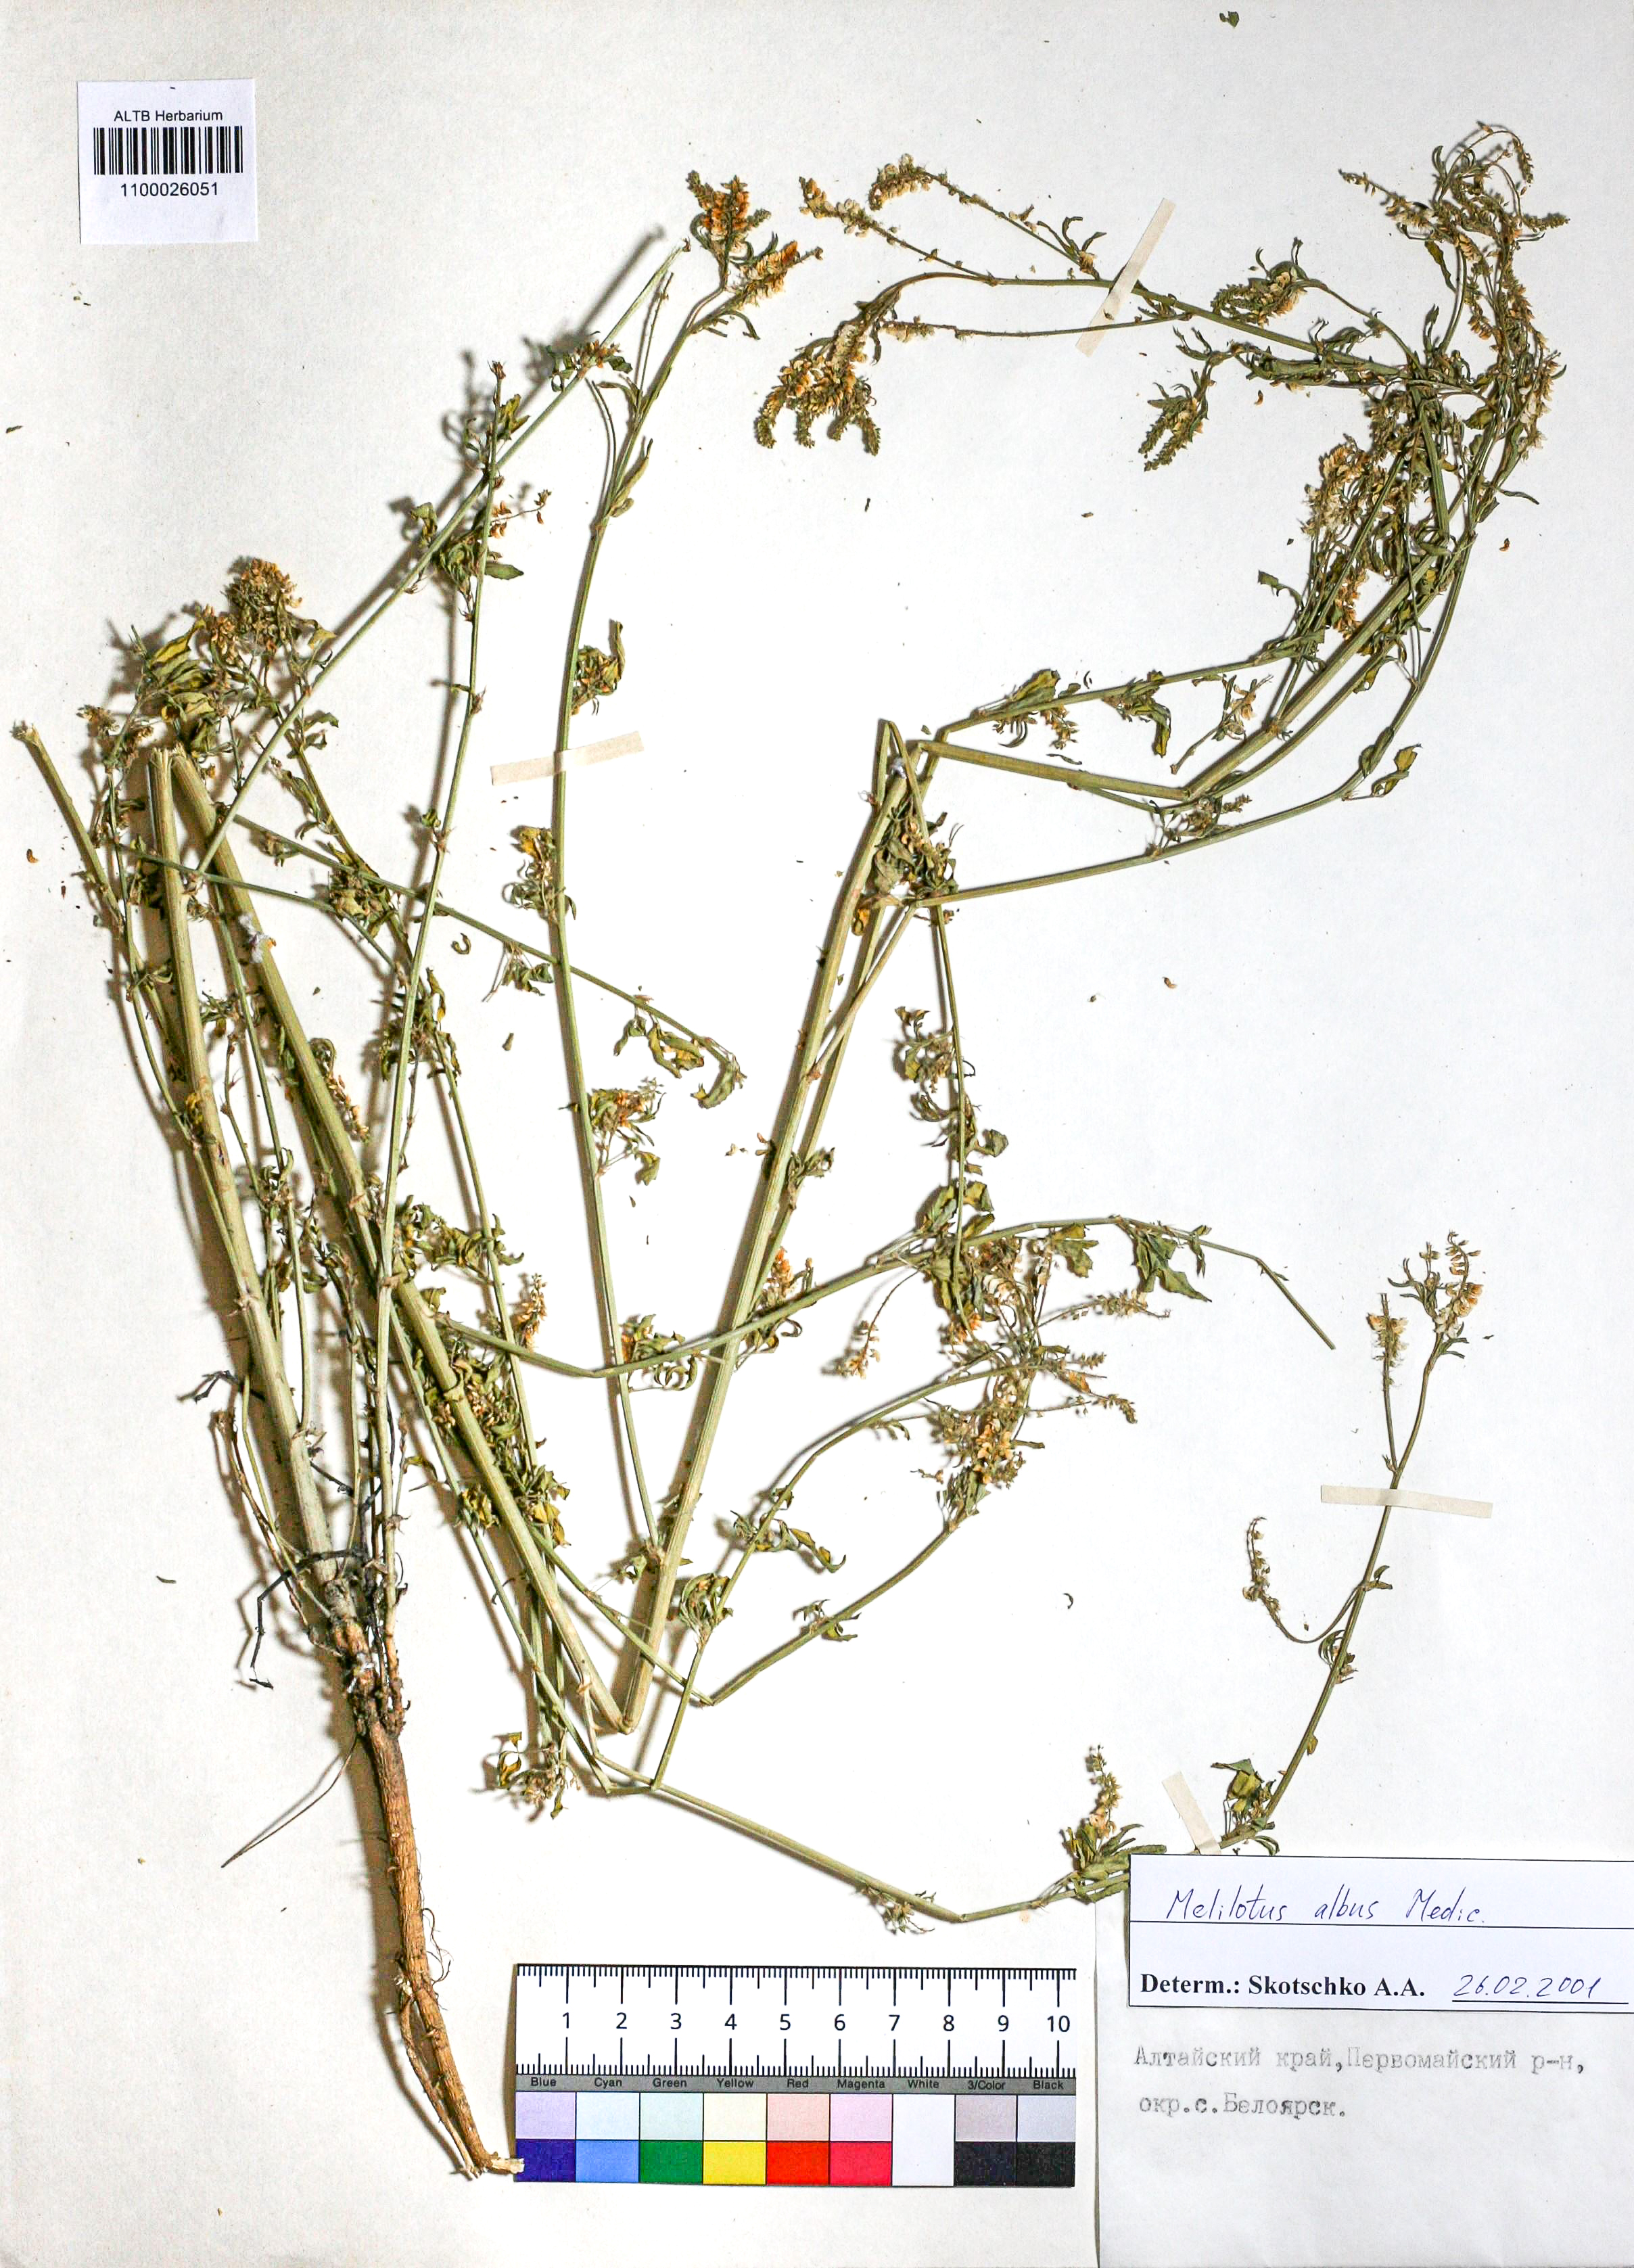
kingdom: Plantae
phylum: Tracheophyta
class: Magnoliopsida
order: Fabales
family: Fabaceae
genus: Melilotus
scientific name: Melilotus albus
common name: White melilot
